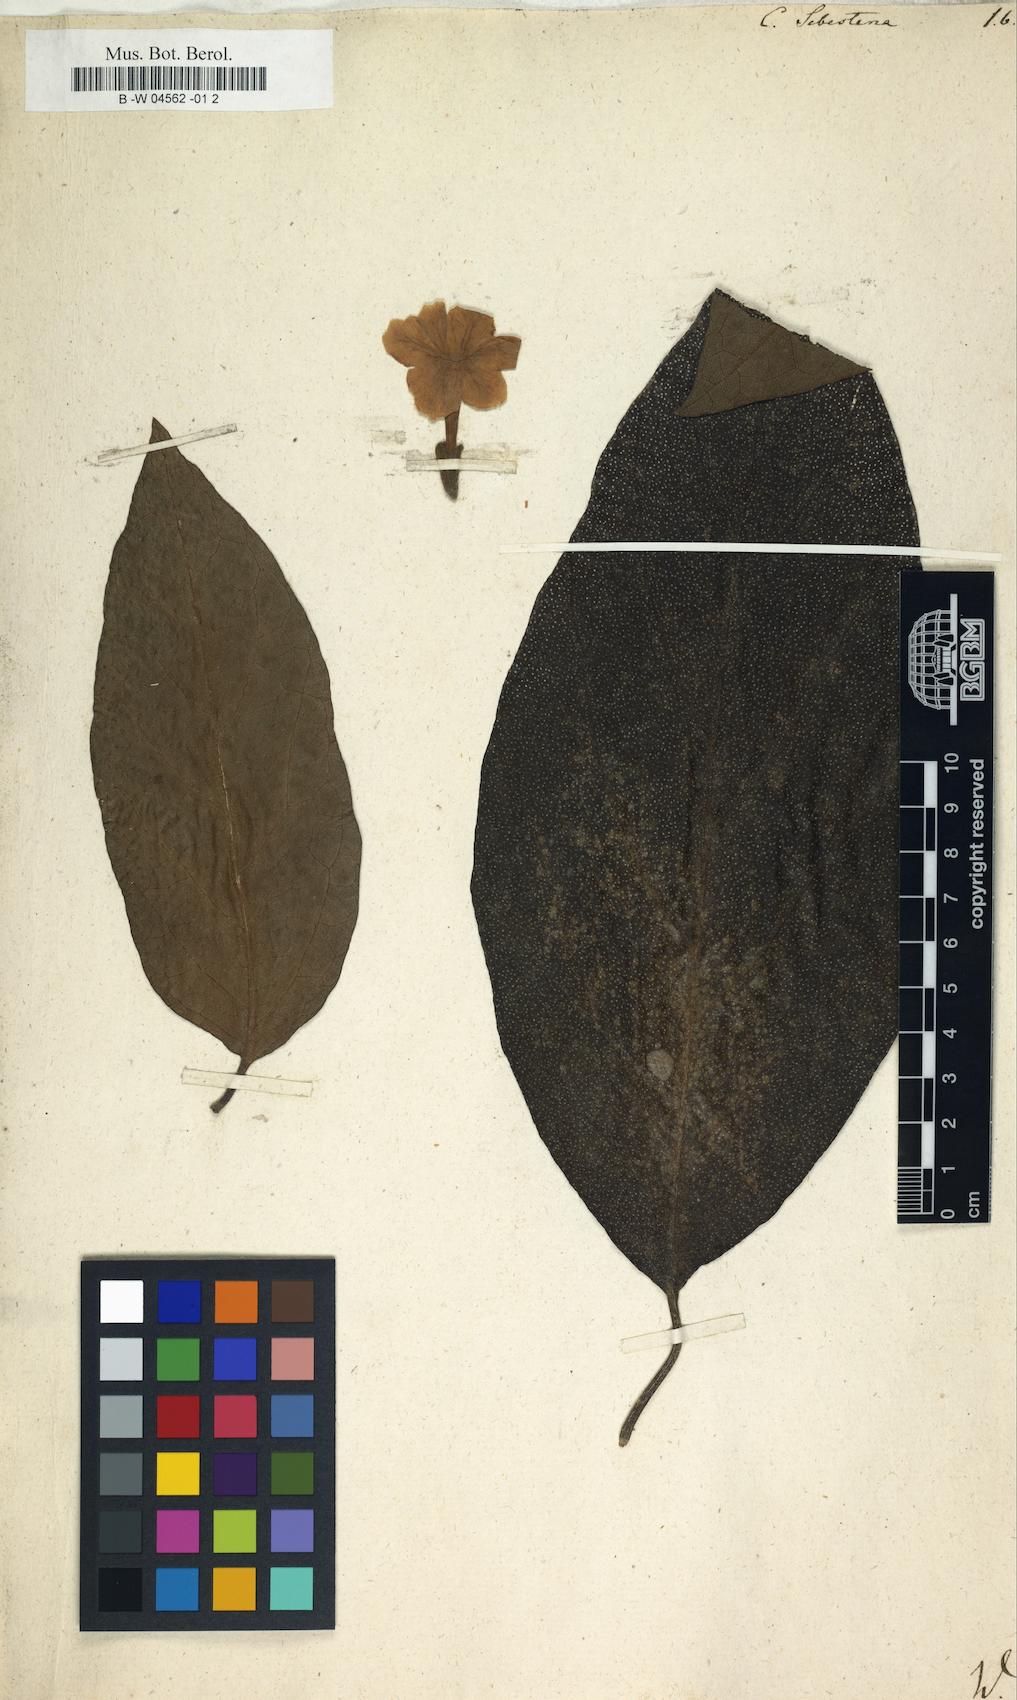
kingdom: Plantae
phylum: Tracheophyta
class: Magnoliopsida
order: Boraginales
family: Cordiaceae
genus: Cordia
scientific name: Cordia sebestena
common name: Largeleaf geigertree
